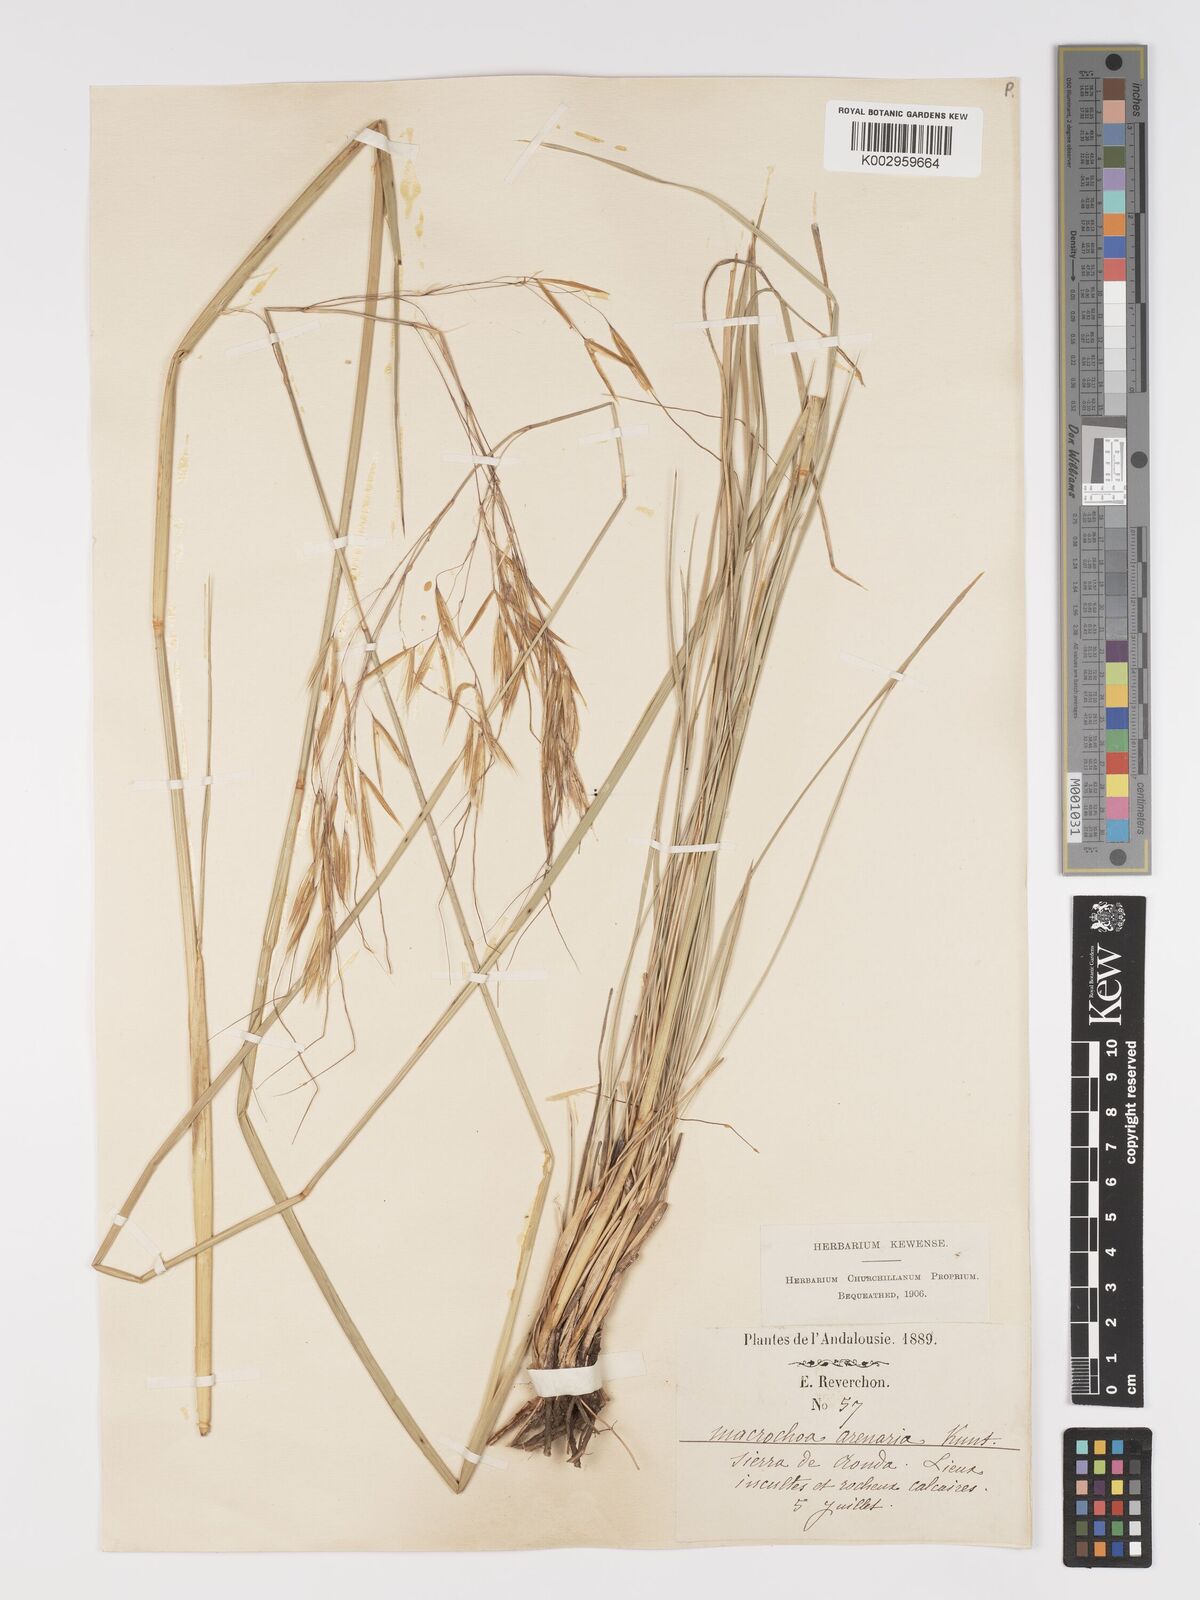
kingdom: Plantae
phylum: Tracheophyta
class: Liliopsida
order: Poales
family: Poaceae
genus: Celtica
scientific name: Celtica gigantea
